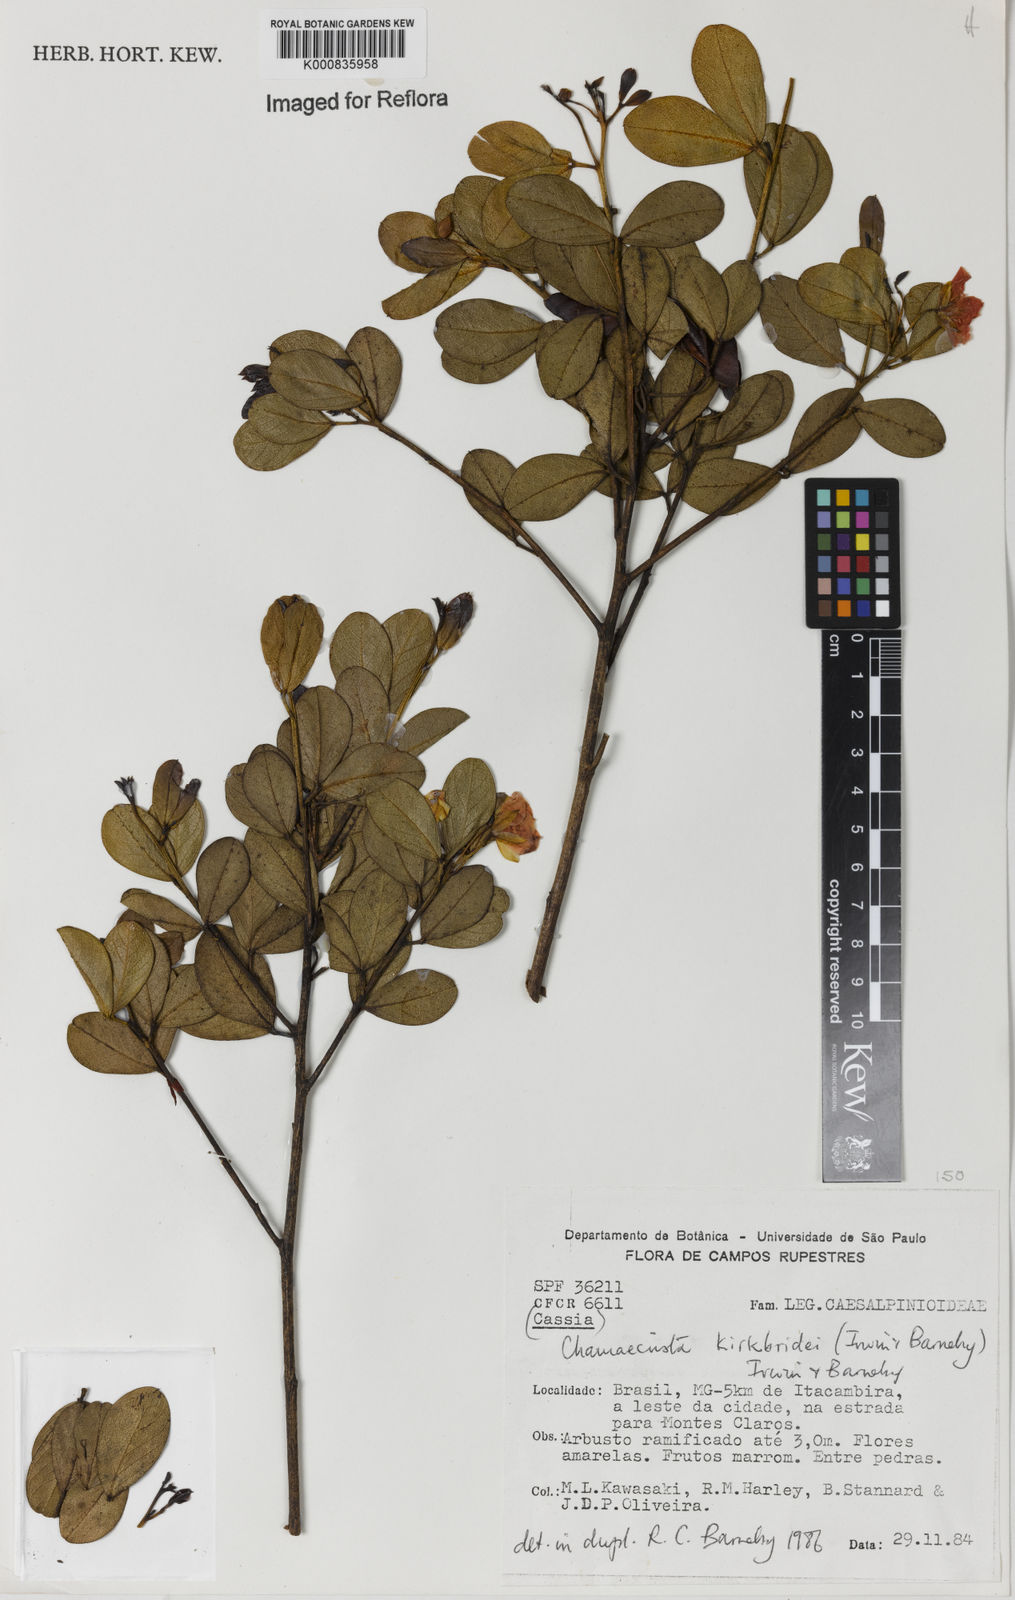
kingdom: Plantae
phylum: Tracheophyta
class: Magnoliopsida
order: Fabales
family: Fabaceae
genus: Chamaecrista
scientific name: Chamaecrista echinocarpa
